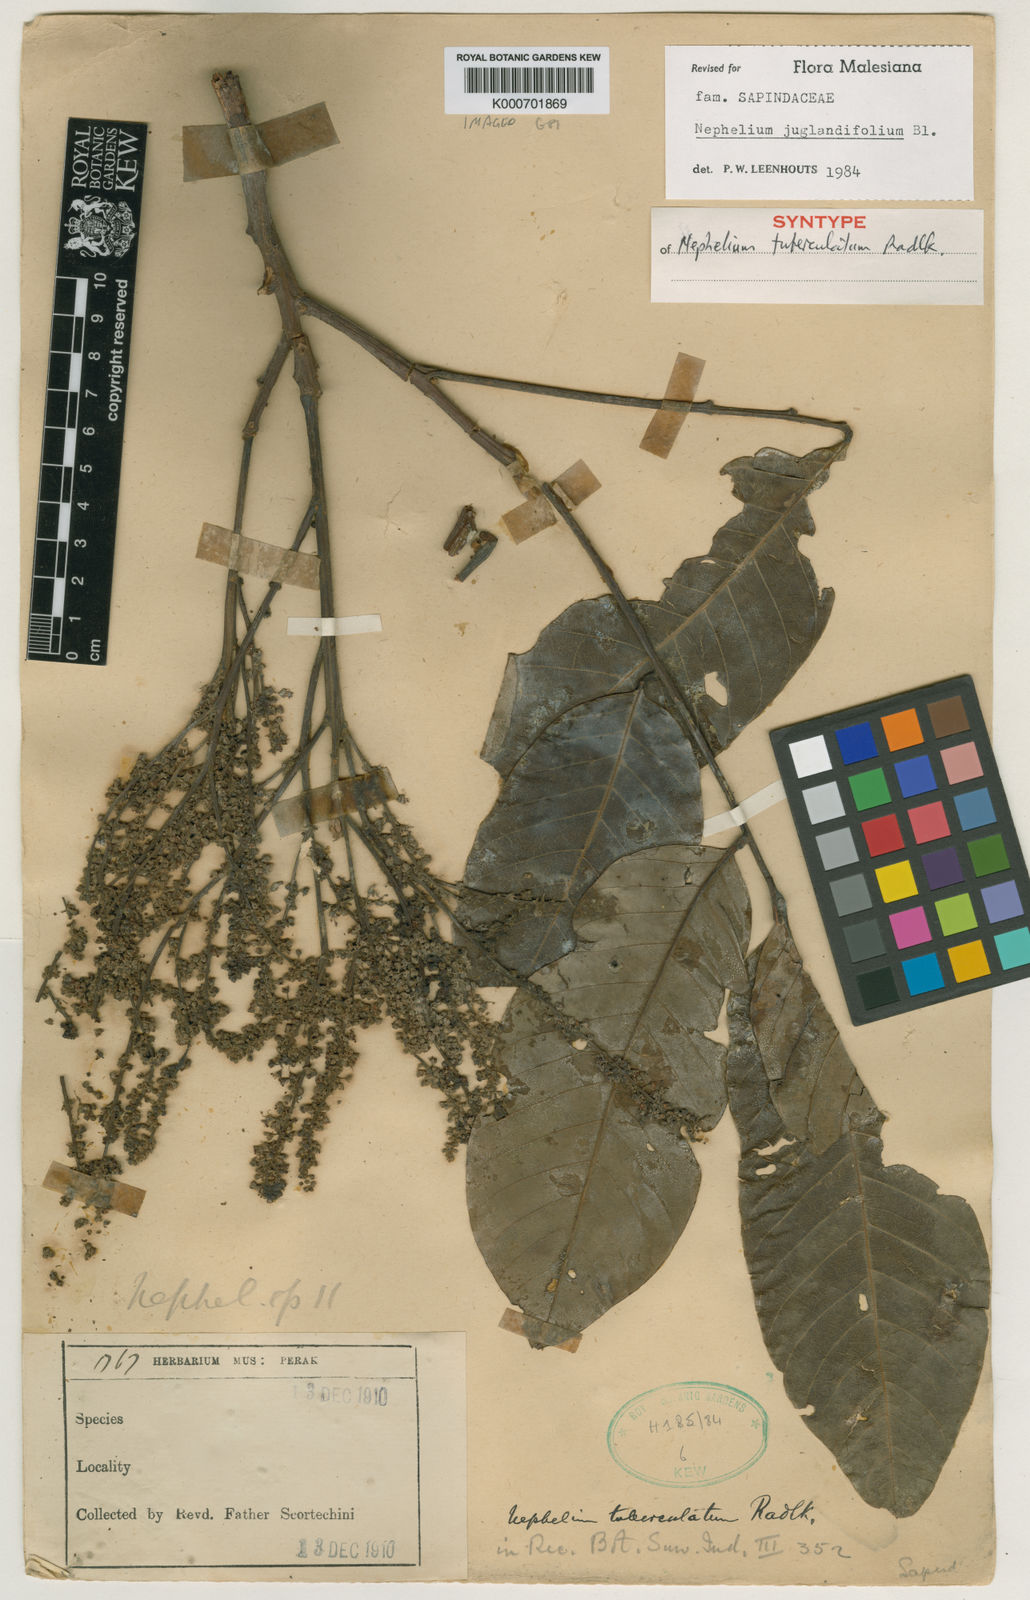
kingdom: Plantae
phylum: Tracheophyta
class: Magnoliopsida
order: Sapindales
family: Sapindaceae
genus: Nephelium
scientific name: Nephelium juglandifolium
